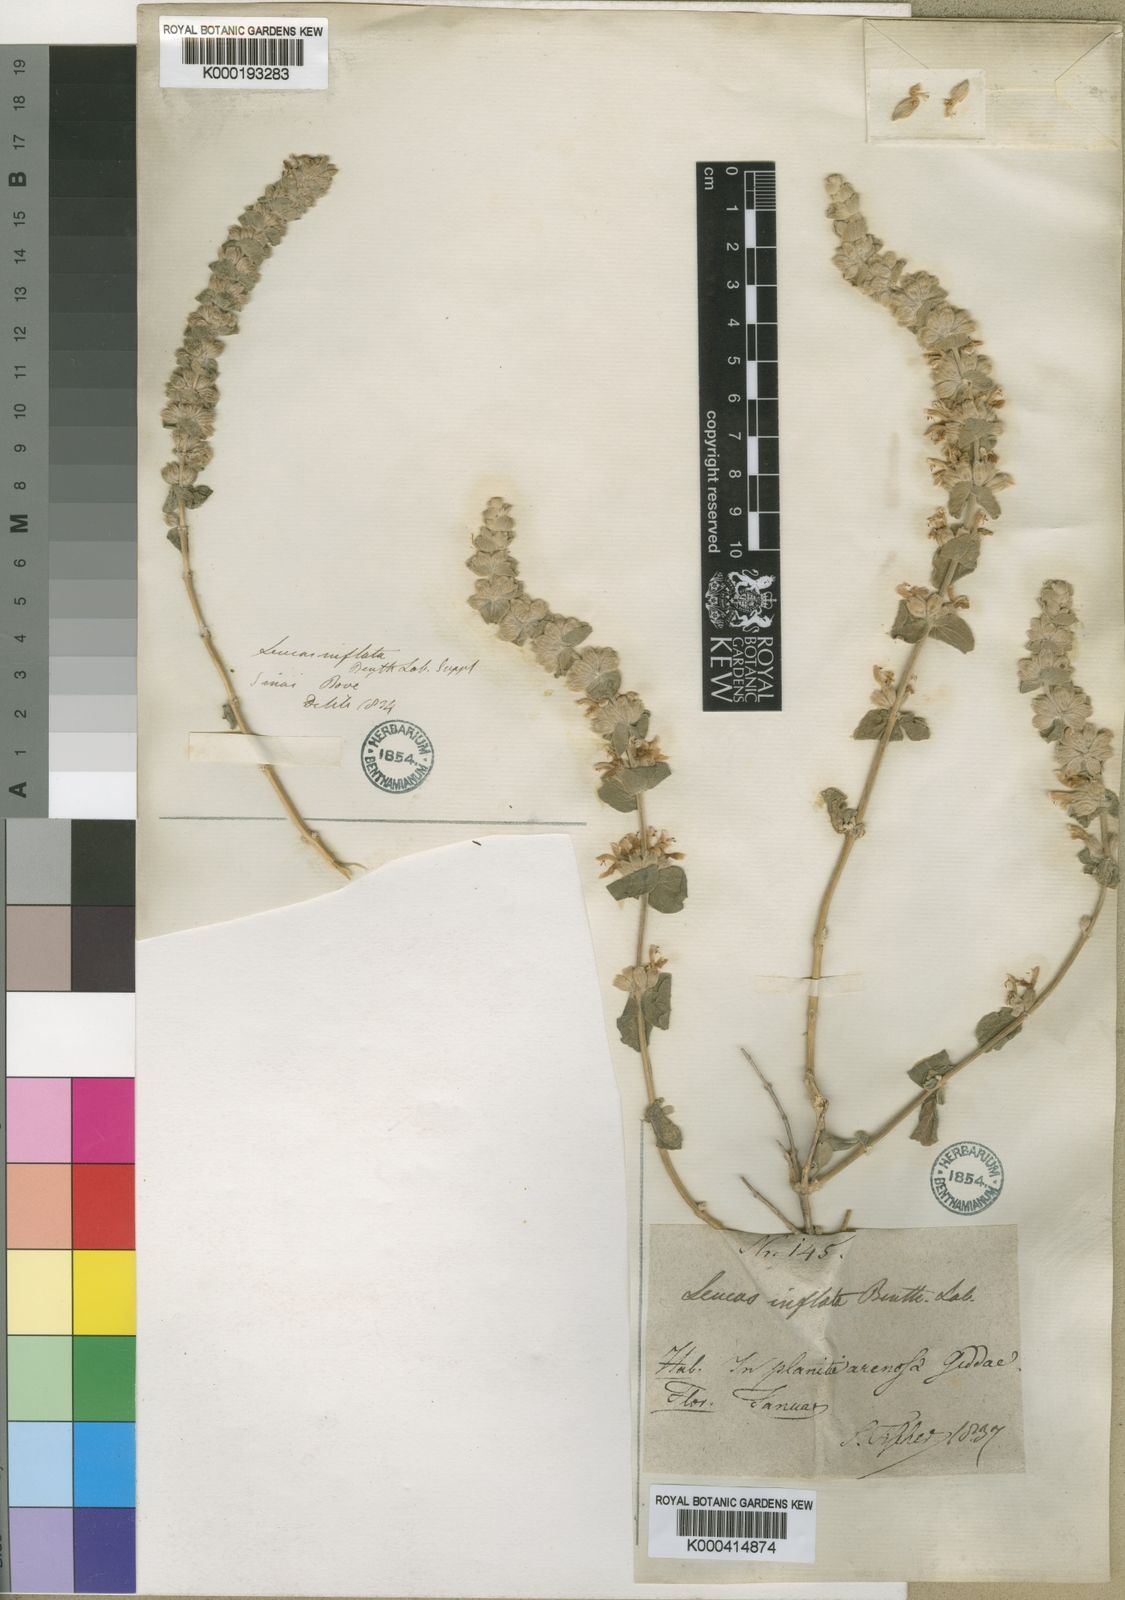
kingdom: Plantae
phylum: Tracheophyta
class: Magnoliopsida
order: Lamiales
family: Lamiaceae
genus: Leucas
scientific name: Leucas inflata
